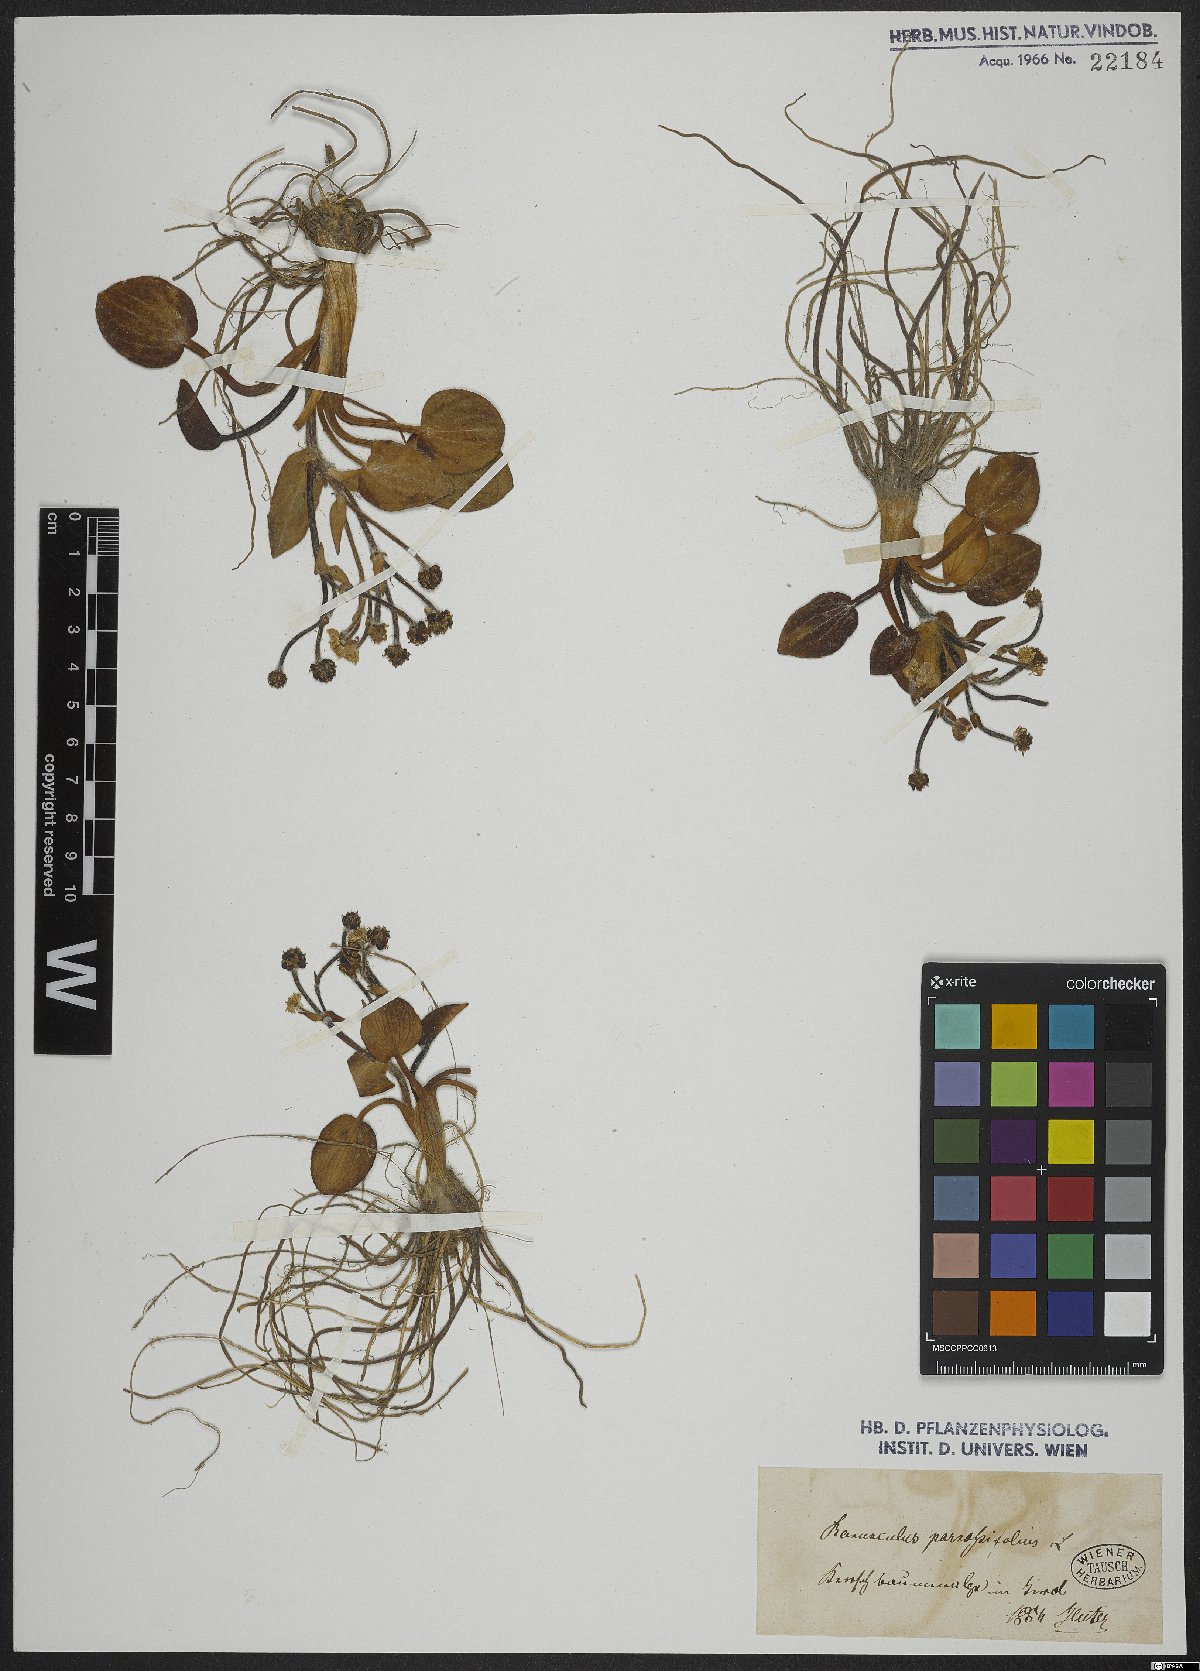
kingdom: Plantae
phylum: Tracheophyta
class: Magnoliopsida
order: Ranunculales
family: Ranunculaceae
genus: Ranunculus
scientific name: Ranunculus parnassiifolius
